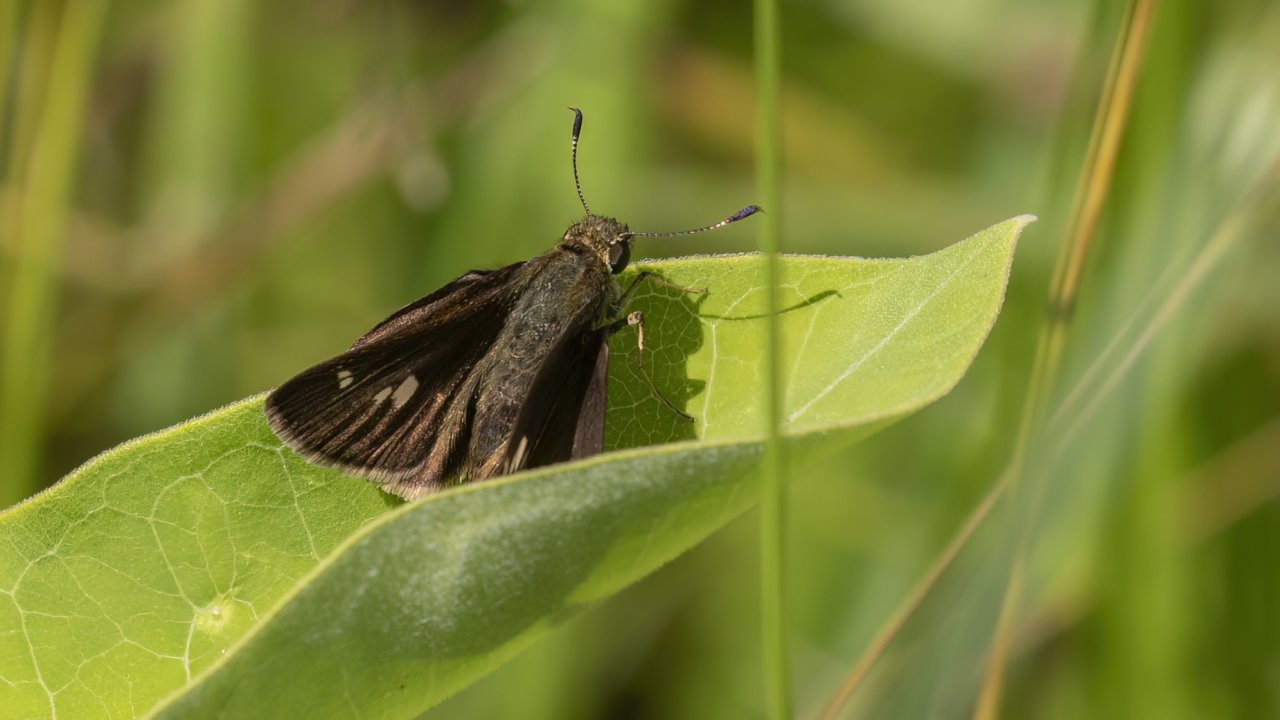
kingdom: Animalia
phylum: Arthropoda
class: Insecta
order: Lepidoptera
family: Hesperiidae
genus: Vernia
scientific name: Vernia verna
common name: Little Glassywing
